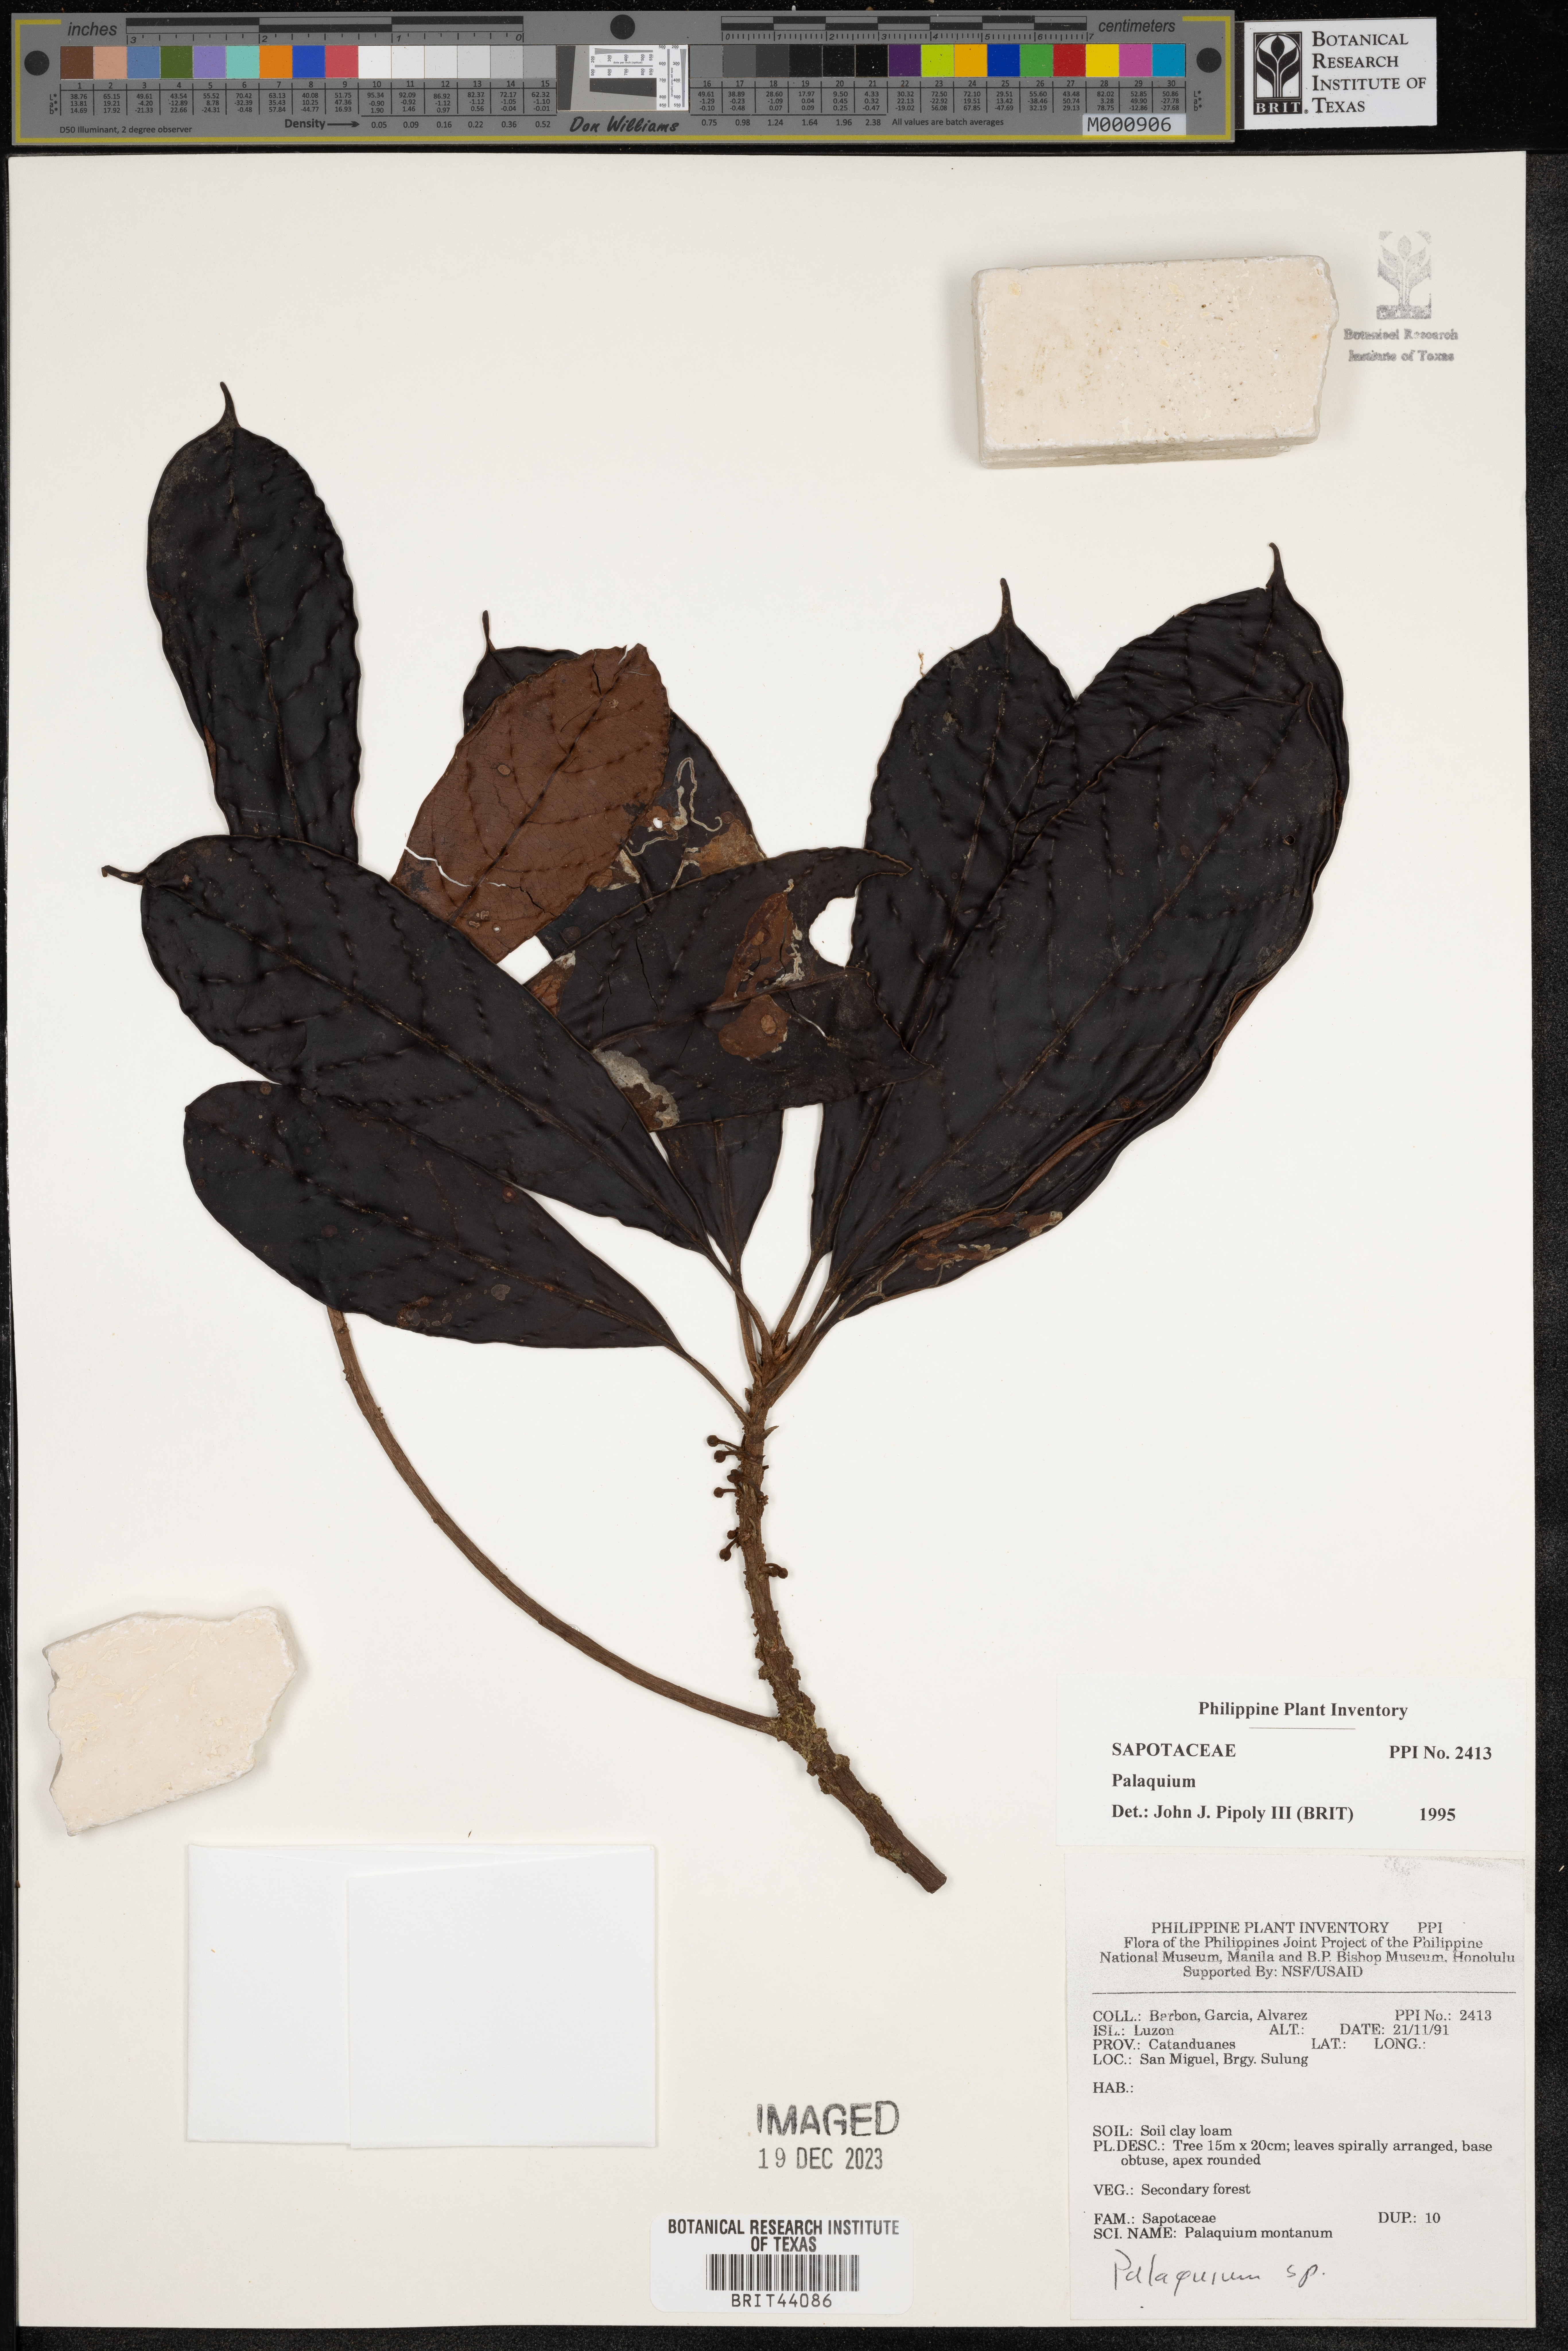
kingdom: Plantae
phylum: Tracheophyta
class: Magnoliopsida
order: Ericales
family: Sapotaceae
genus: Palaquium
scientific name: Palaquium
